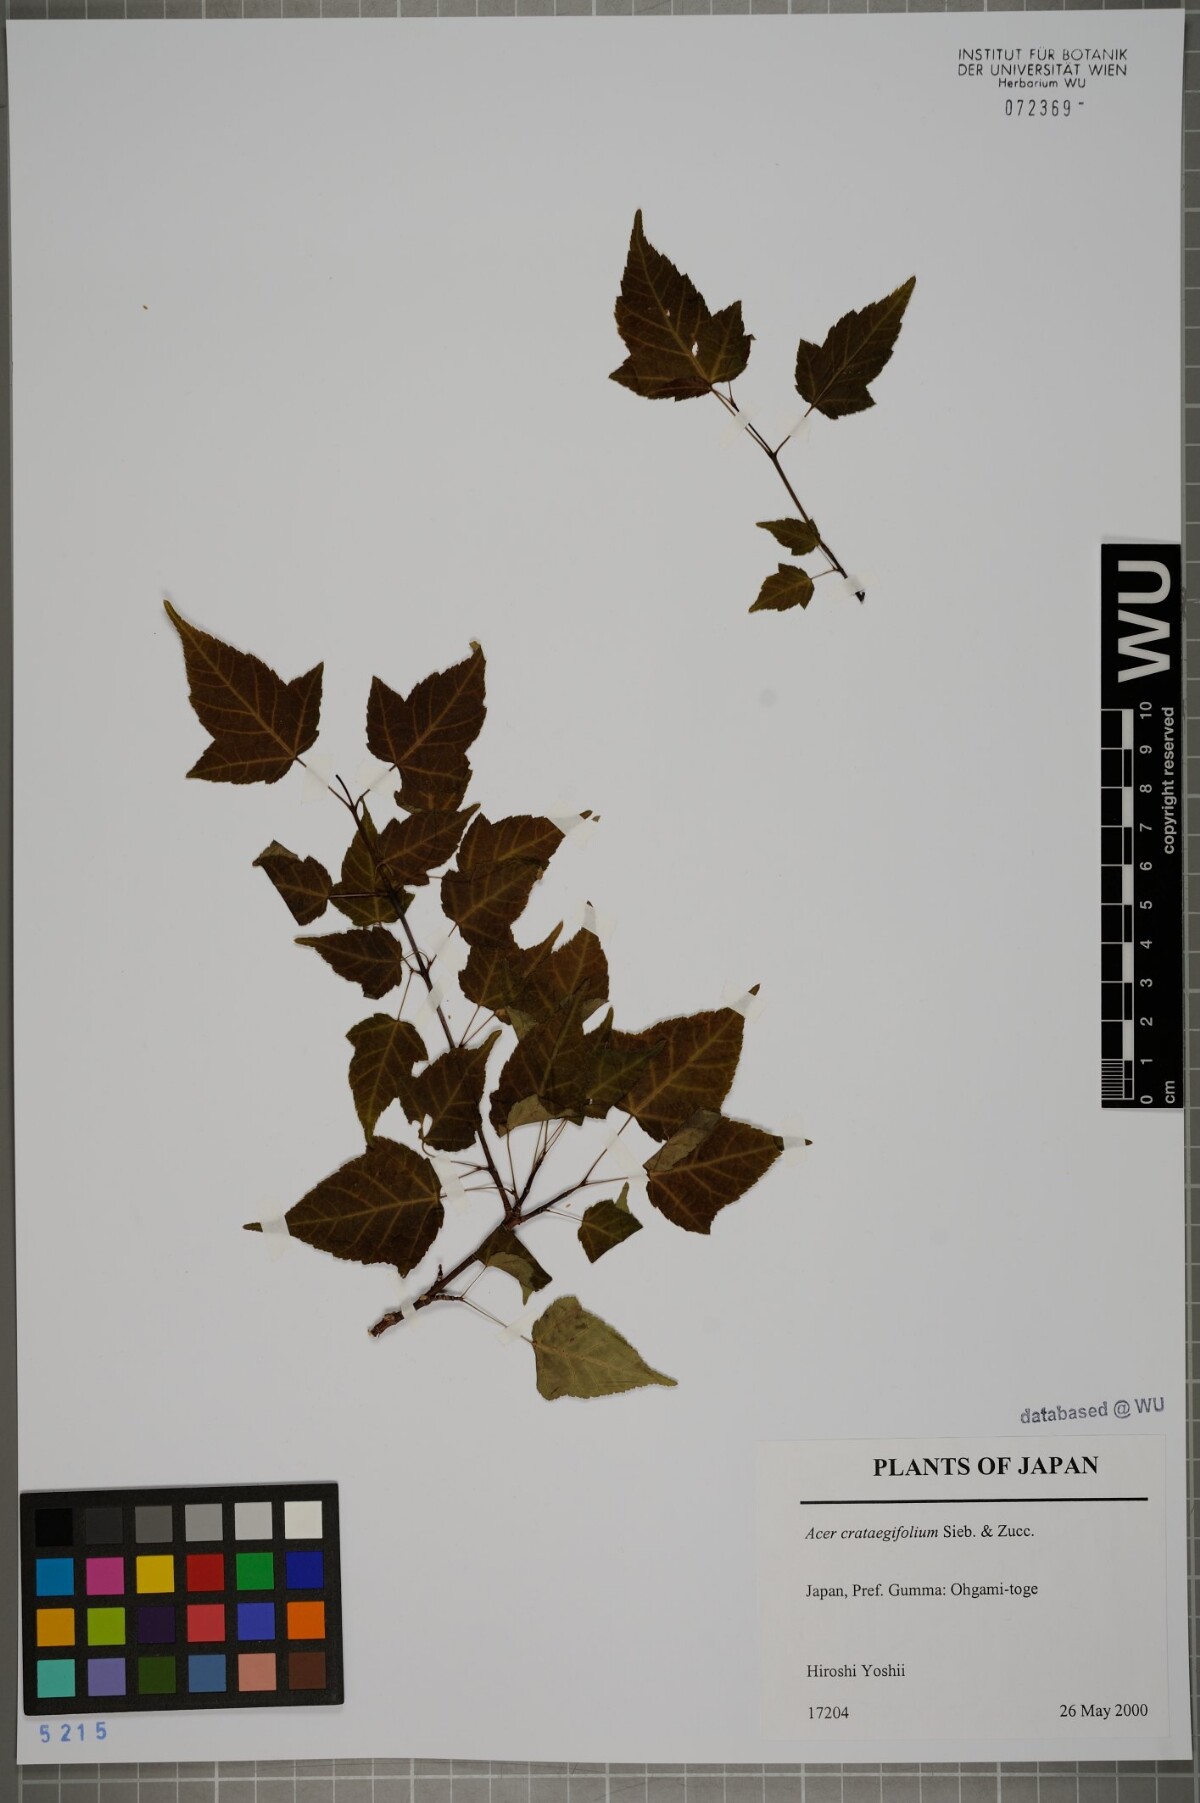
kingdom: Plantae
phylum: Tracheophyta
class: Magnoliopsida
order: Sapindales
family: Sapindaceae
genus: Acer
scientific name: Acer crataegifolium
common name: Hawthorn-leaf maple
